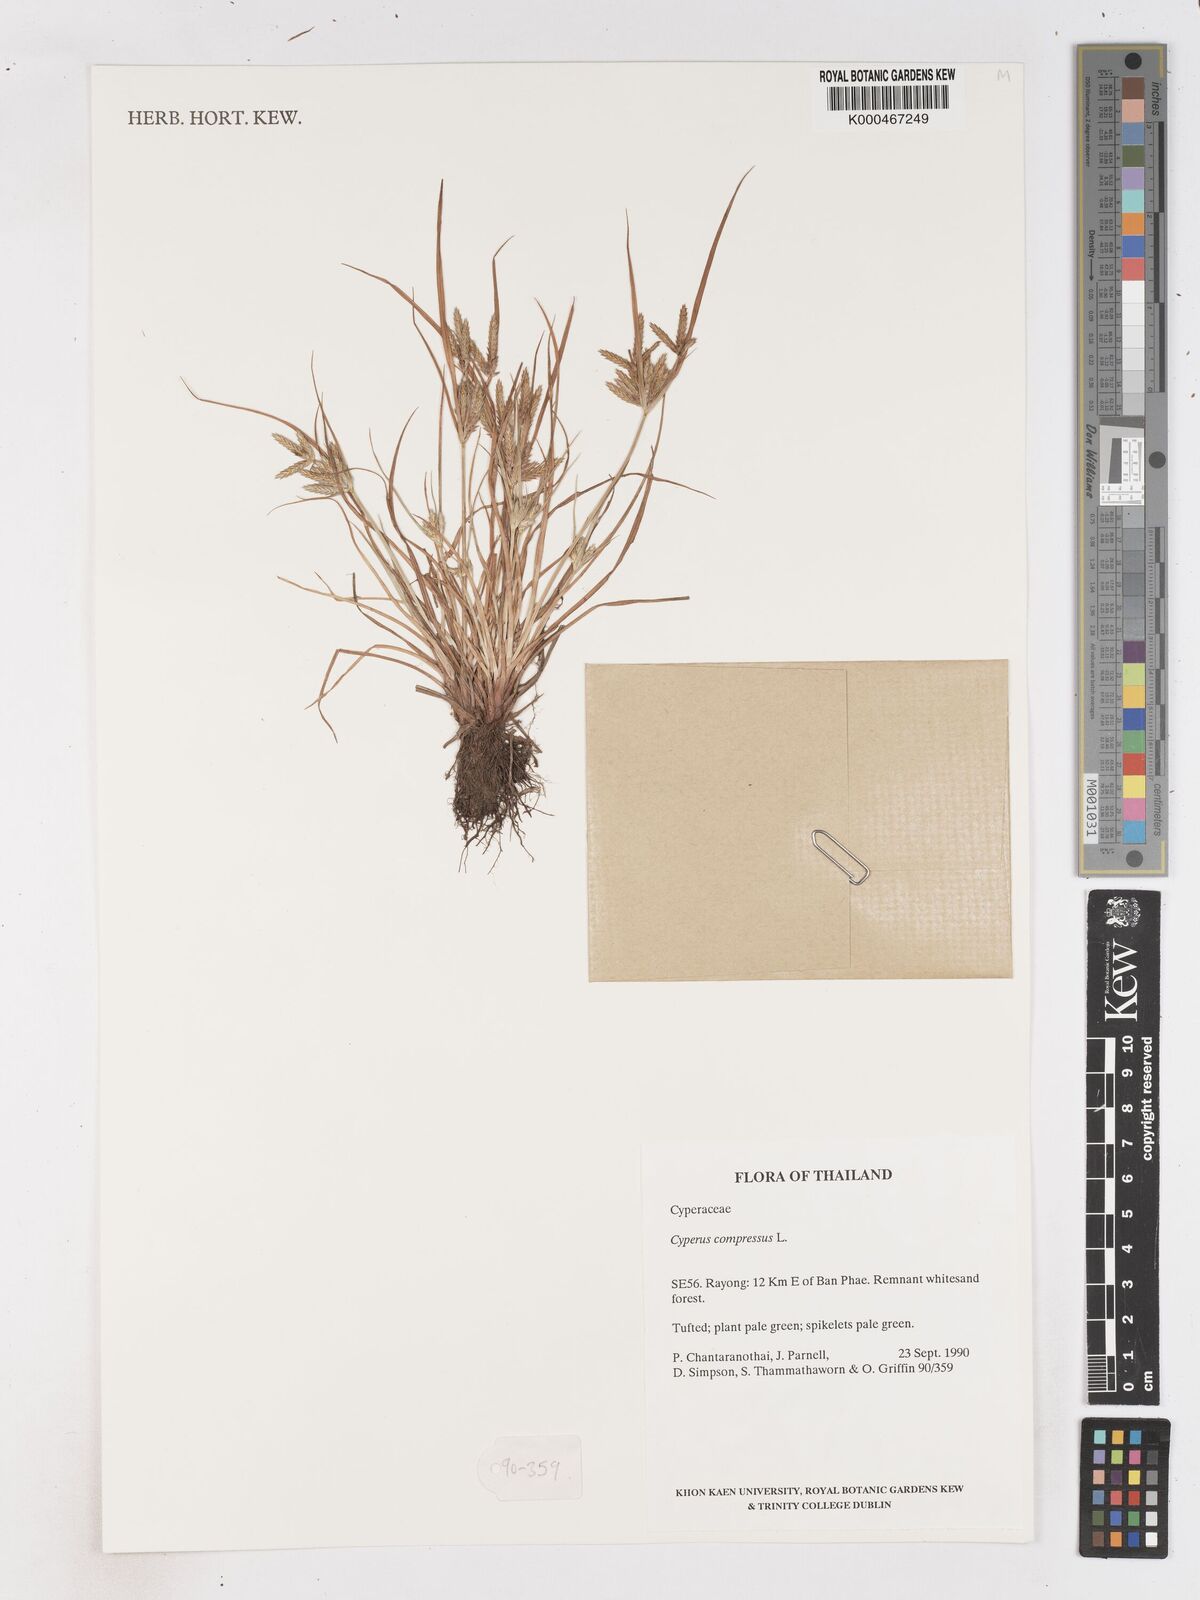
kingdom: Plantae
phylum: Tracheophyta
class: Liliopsida
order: Poales
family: Cyperaceae
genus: Cyperus
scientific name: Cyperus compressus
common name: Poorland flatsedge
